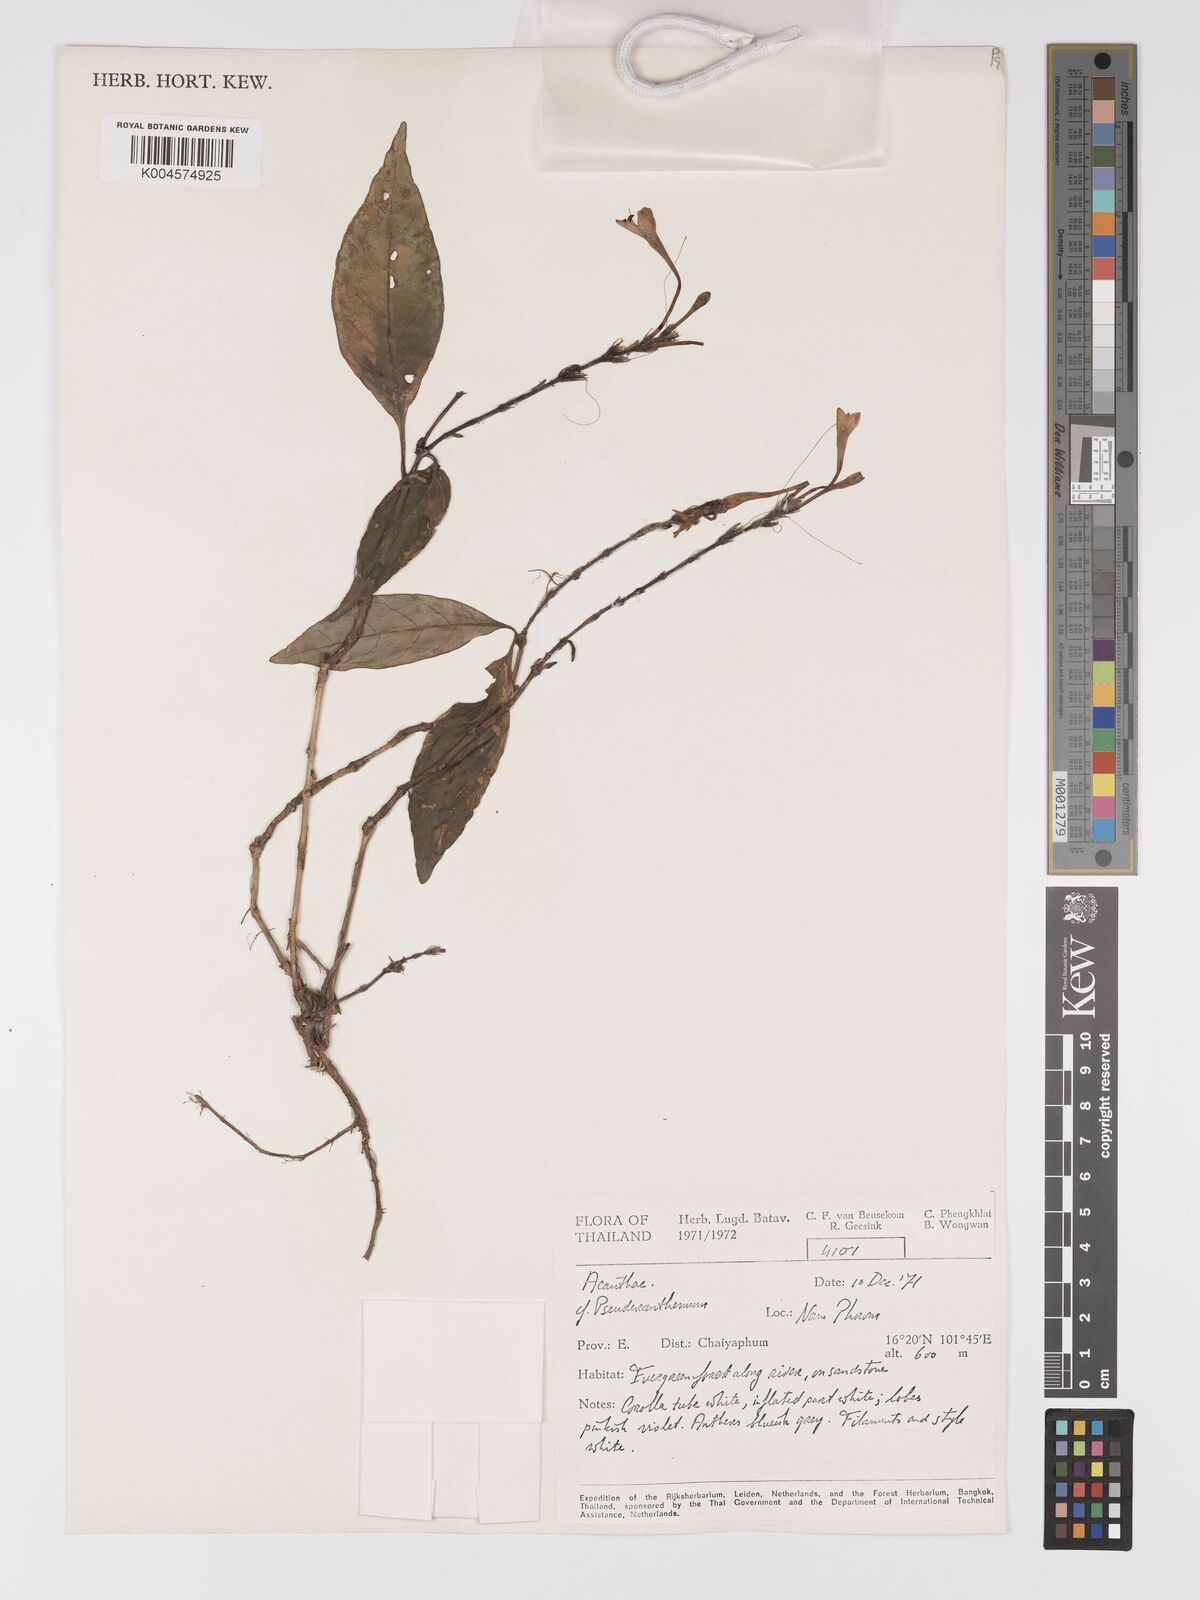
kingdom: Plantae
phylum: Tracheophyta
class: Magnoliopsida
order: Lamiales
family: Acanthaceae
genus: Pseuderanthemum
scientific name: Pseuderanthemum
